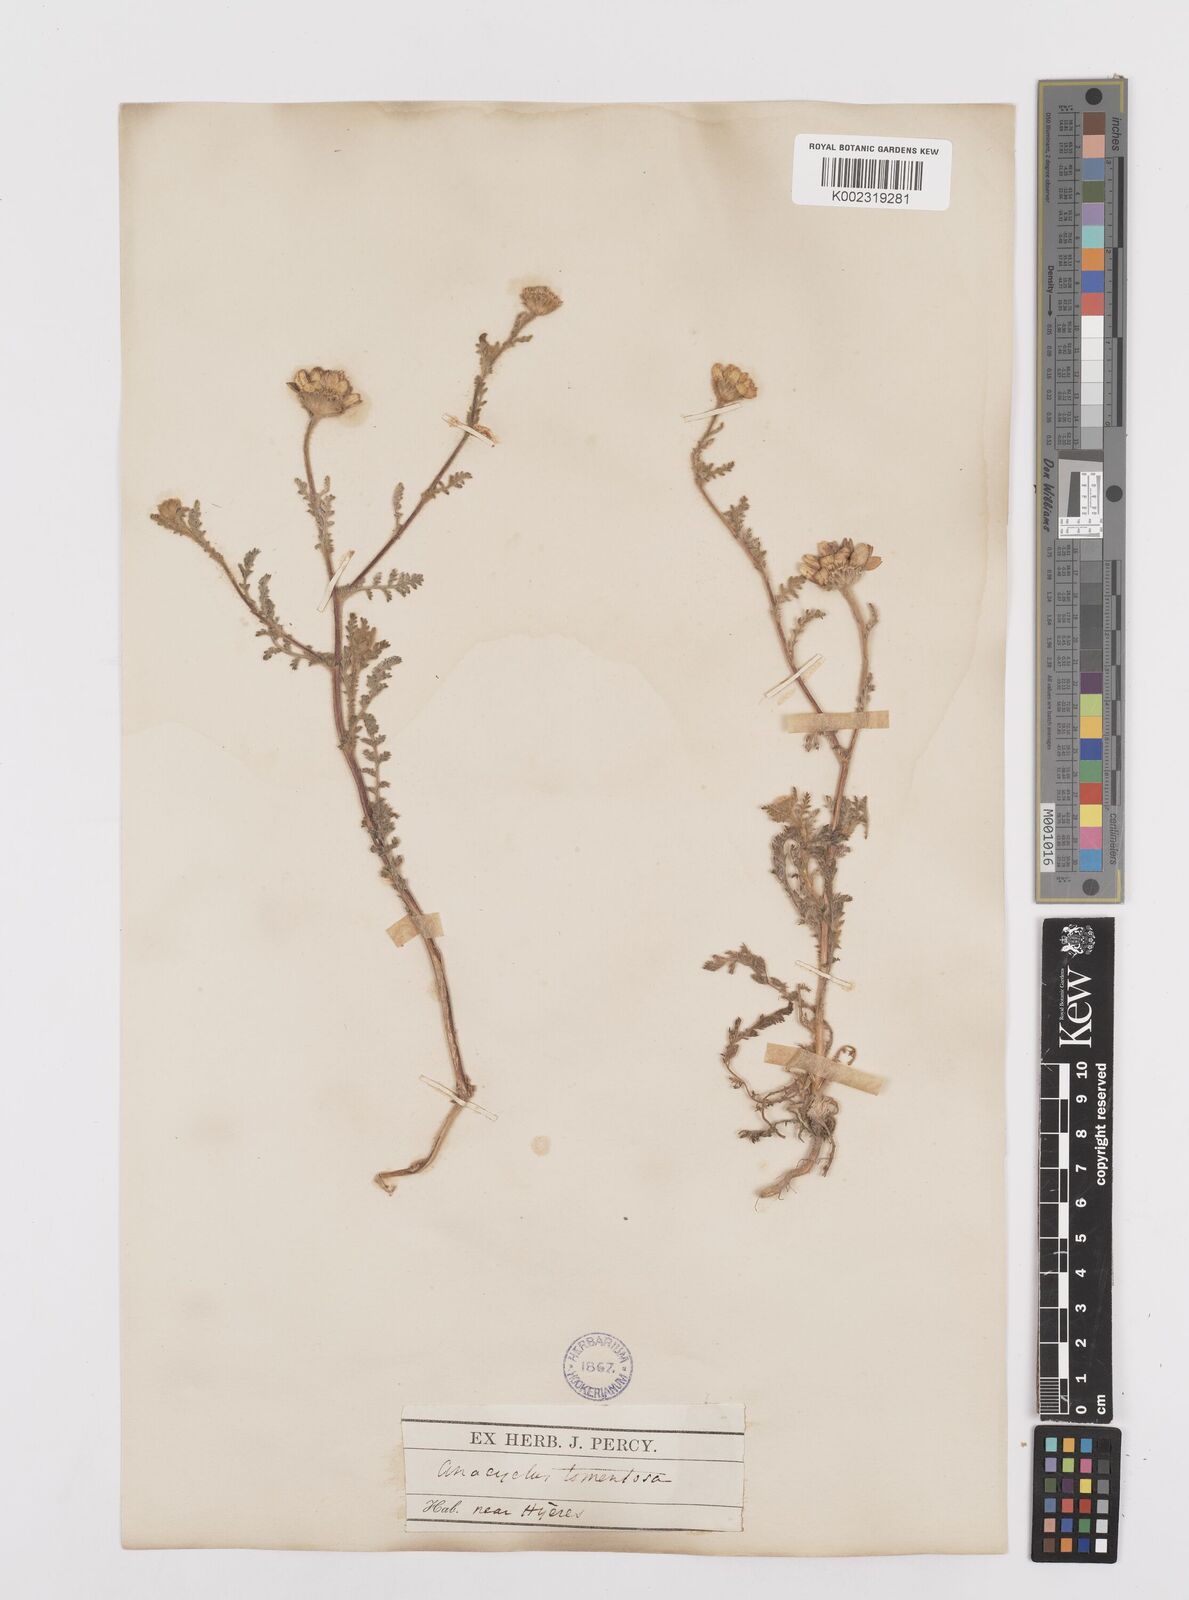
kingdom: Plantae
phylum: Tracheophyta
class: Magnoliopsida
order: Asterales
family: Asteraceae
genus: Anacyclus
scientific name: Anacyclus radiatus
